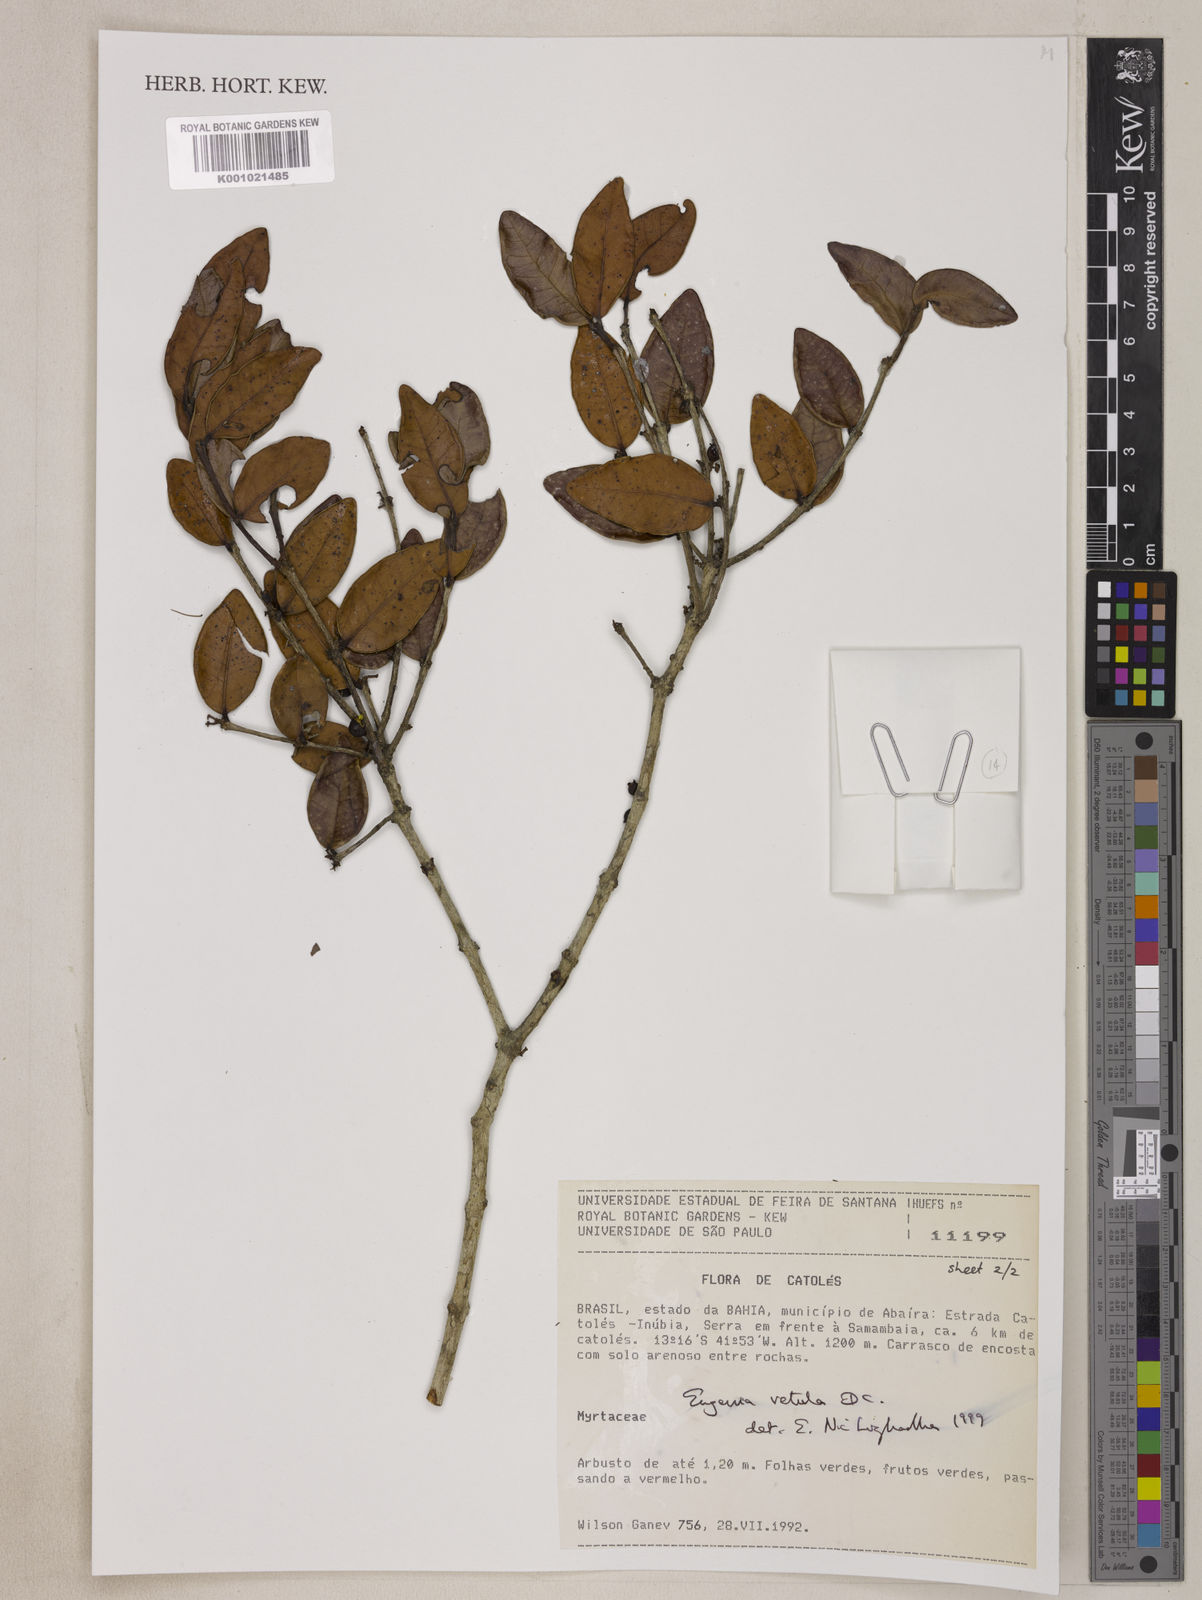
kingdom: Plantae
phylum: Tracheophyta
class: Magnoliopsida
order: Myrtales
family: Myrtaceae
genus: Eugenia
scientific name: Eugenia vetula
